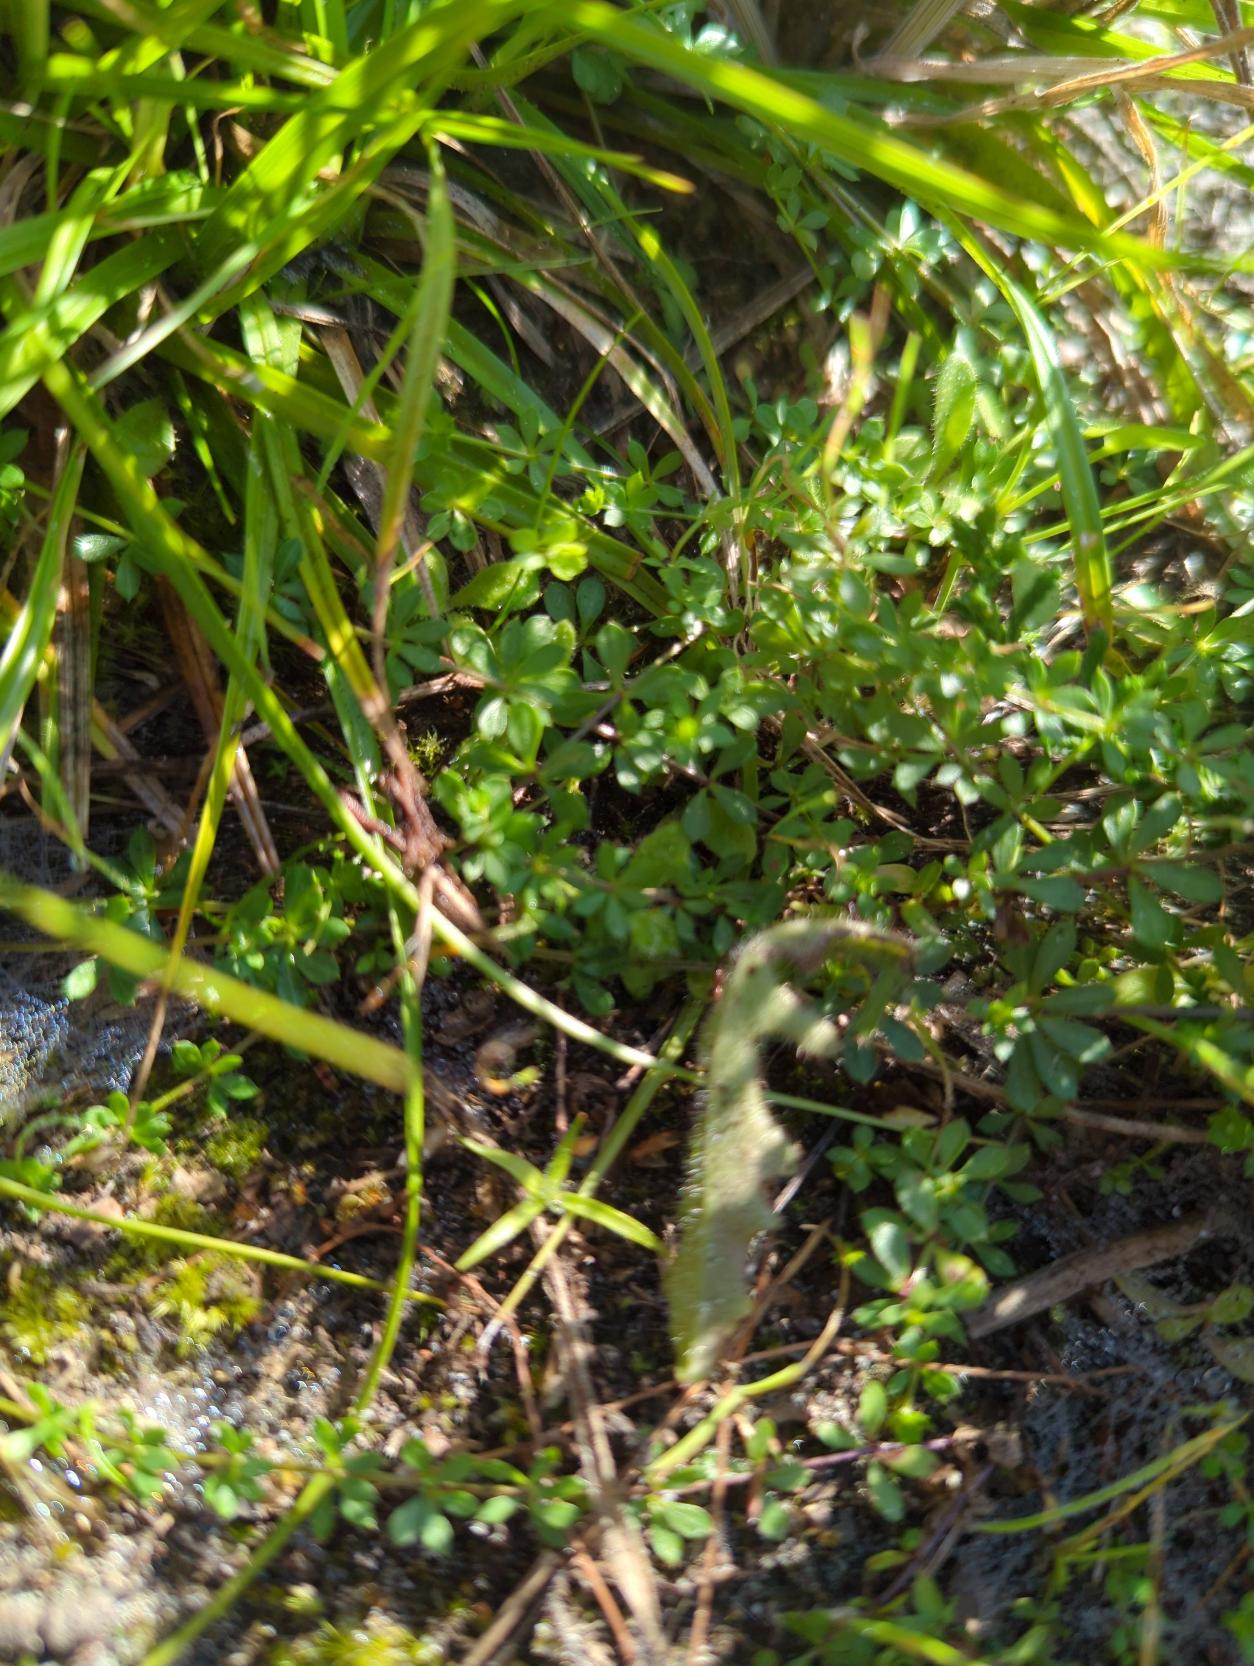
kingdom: Plantae
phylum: Tracheophyta
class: Magnoliopsida
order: Gentianales
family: Rubiaceae
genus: Galium
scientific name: Galium saxatile
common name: Lyng-snerre
